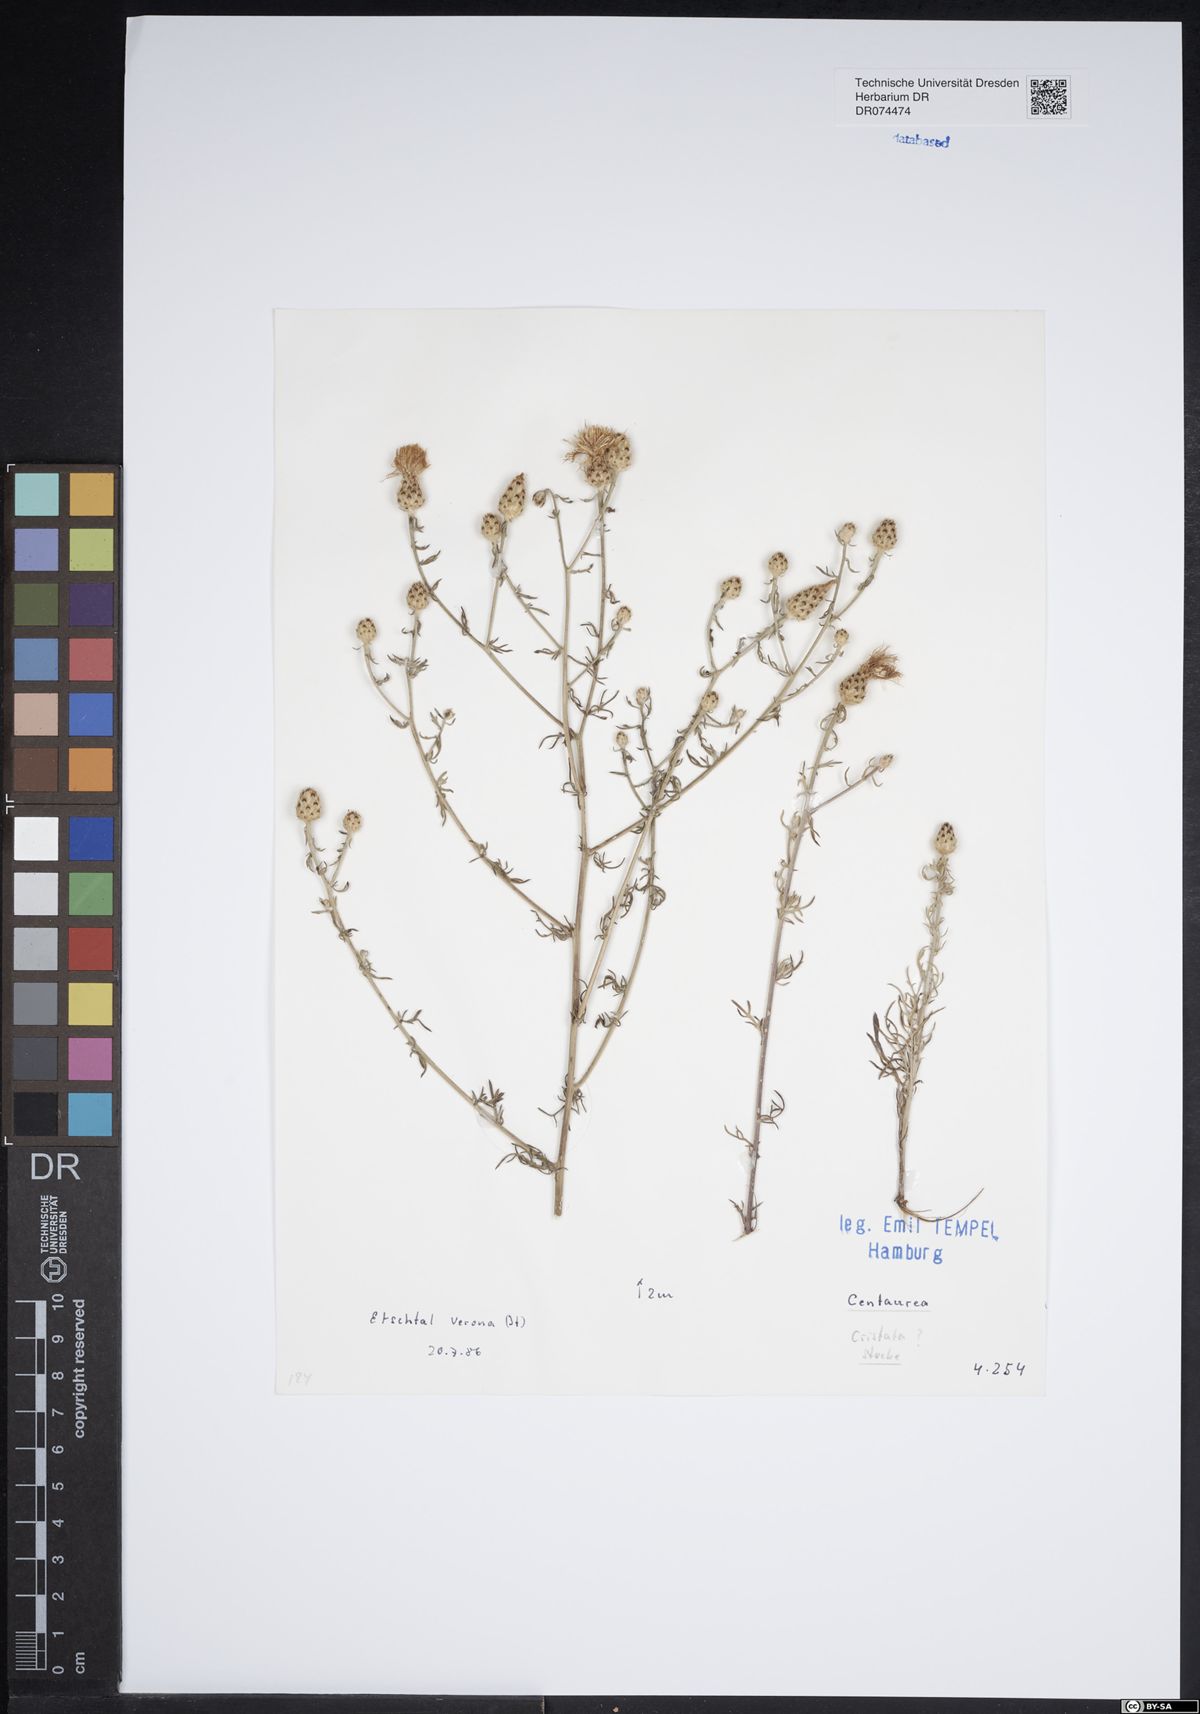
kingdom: Plantae
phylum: Tracheophyta
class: Magnoliopsida
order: Asterales
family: Asteraceae
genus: Centaurea
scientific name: Centaurea stoebe
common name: Spotted knapweed
